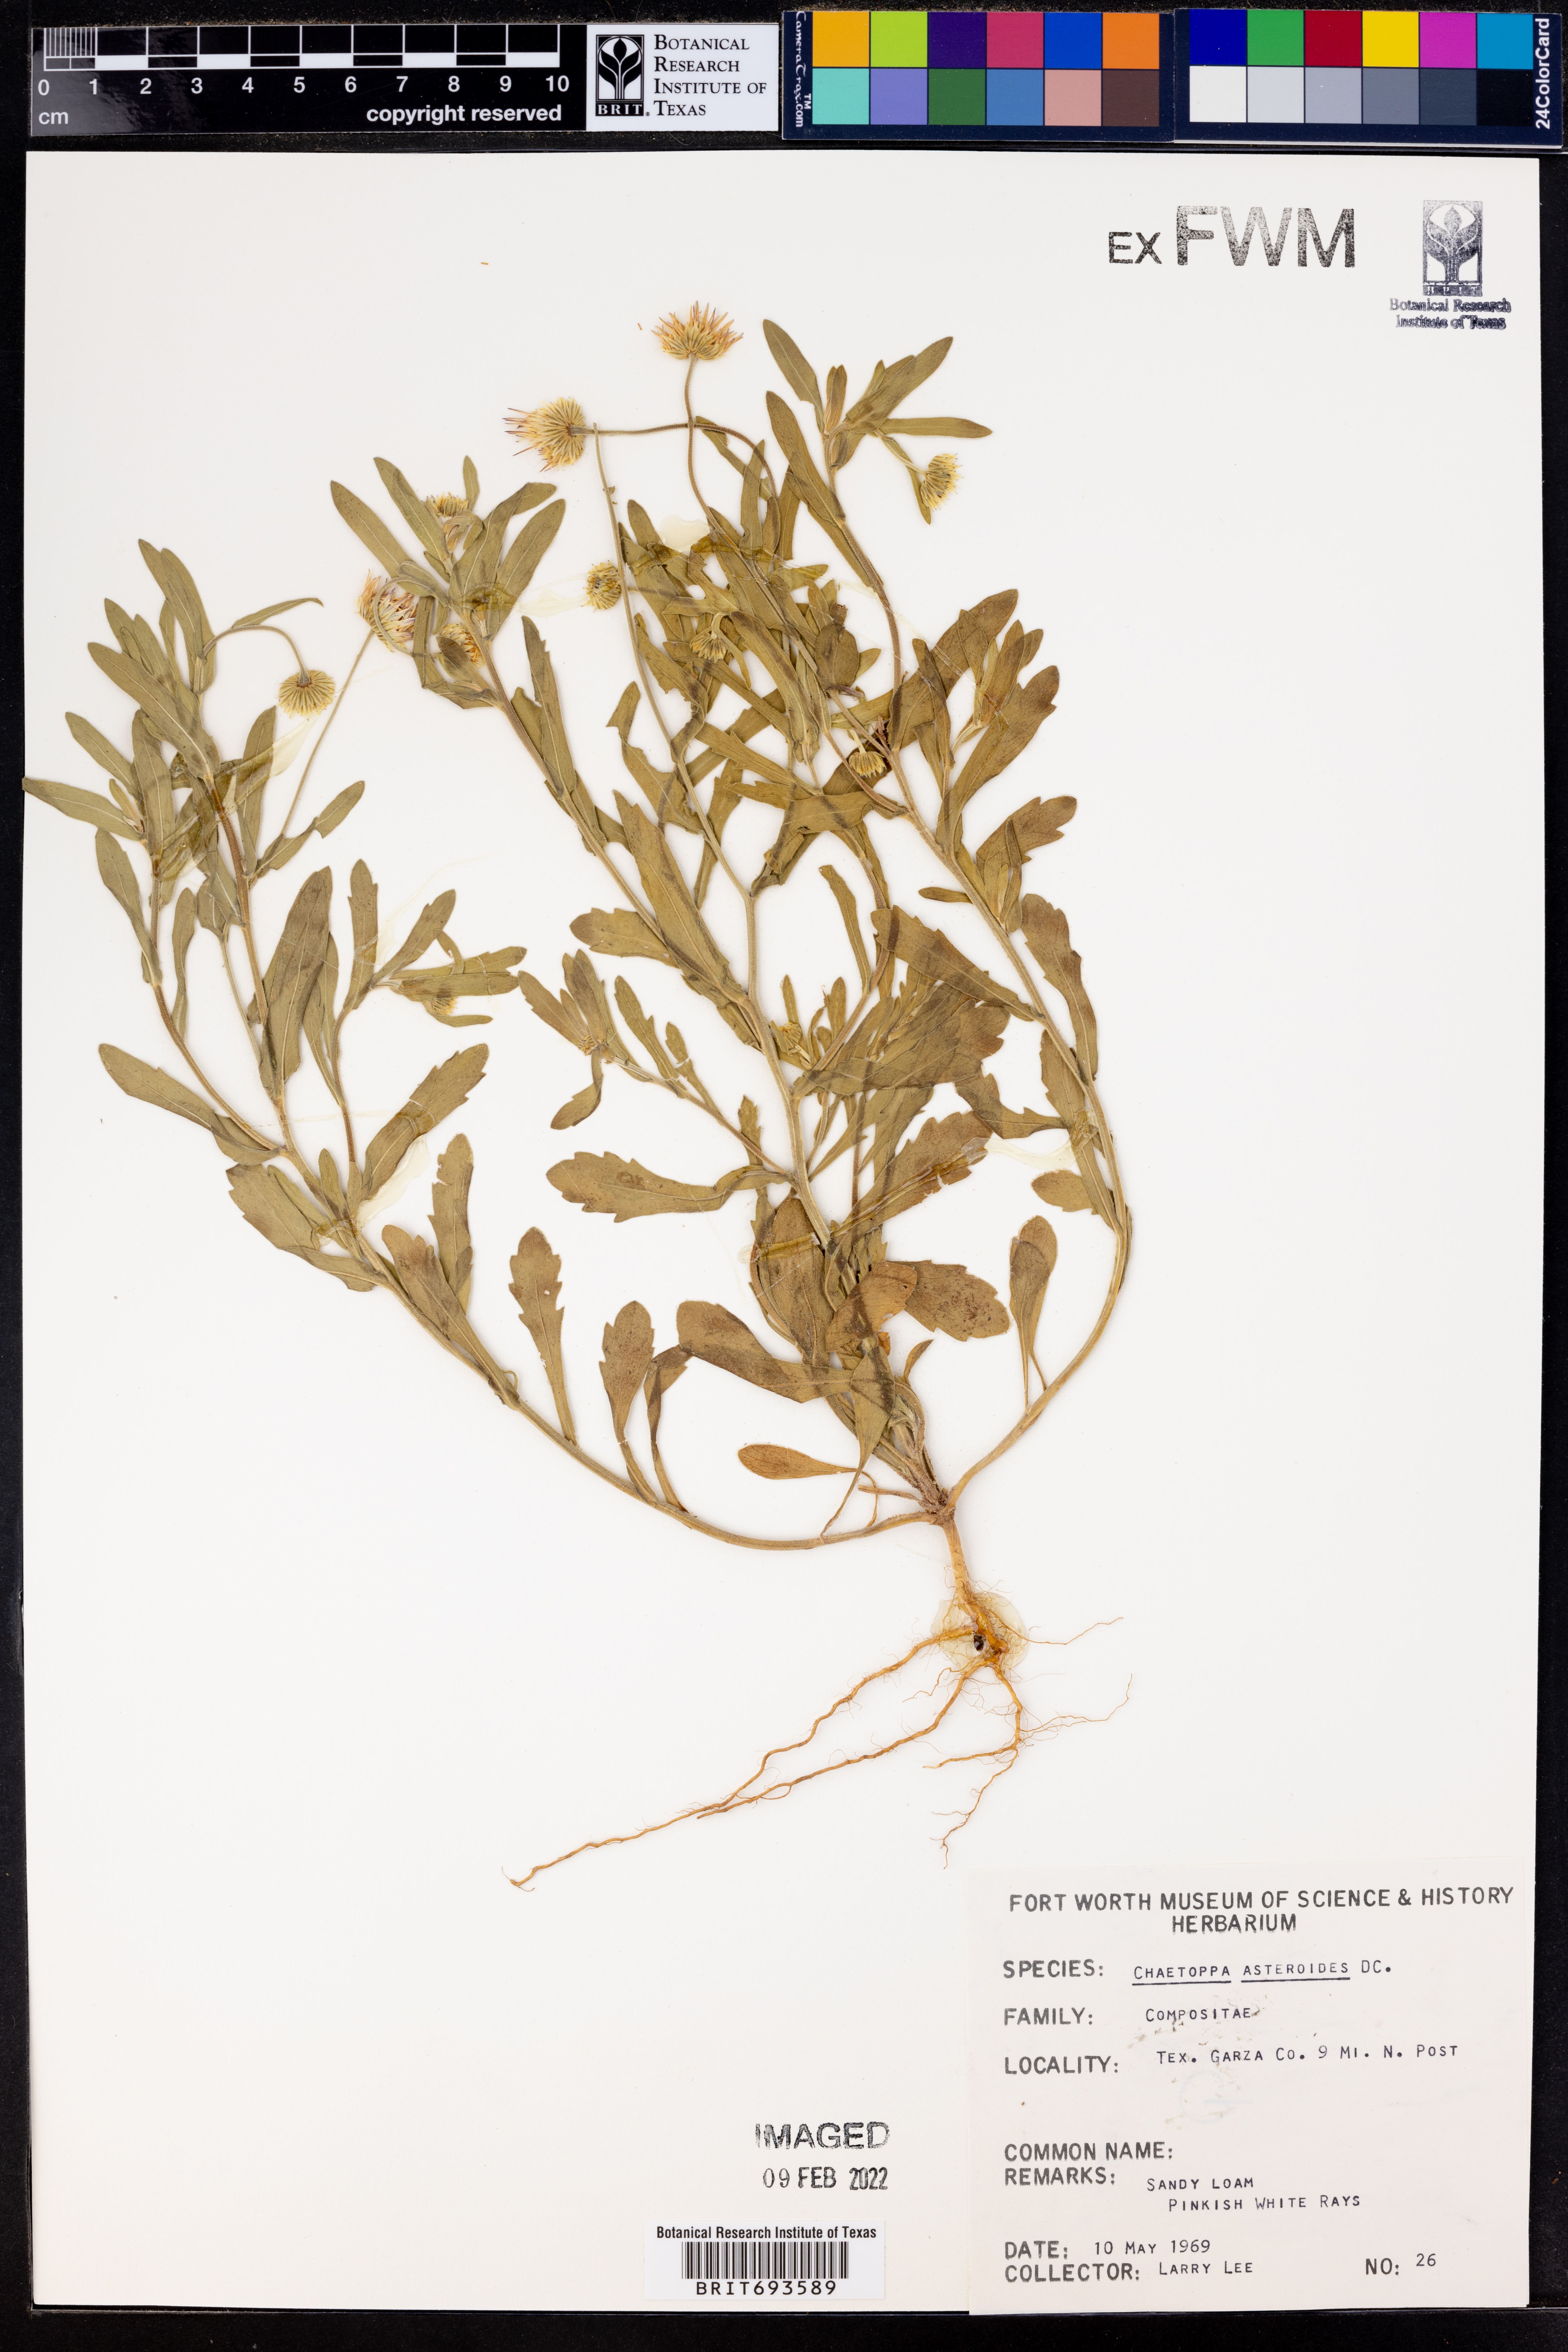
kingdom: Plantae
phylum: Tracheophyta
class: Magnoliopsida
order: Asterales
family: Asteraceae
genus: Chaetopappa
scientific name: Chaetopappa asteroides
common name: Tiny lazy daisy
